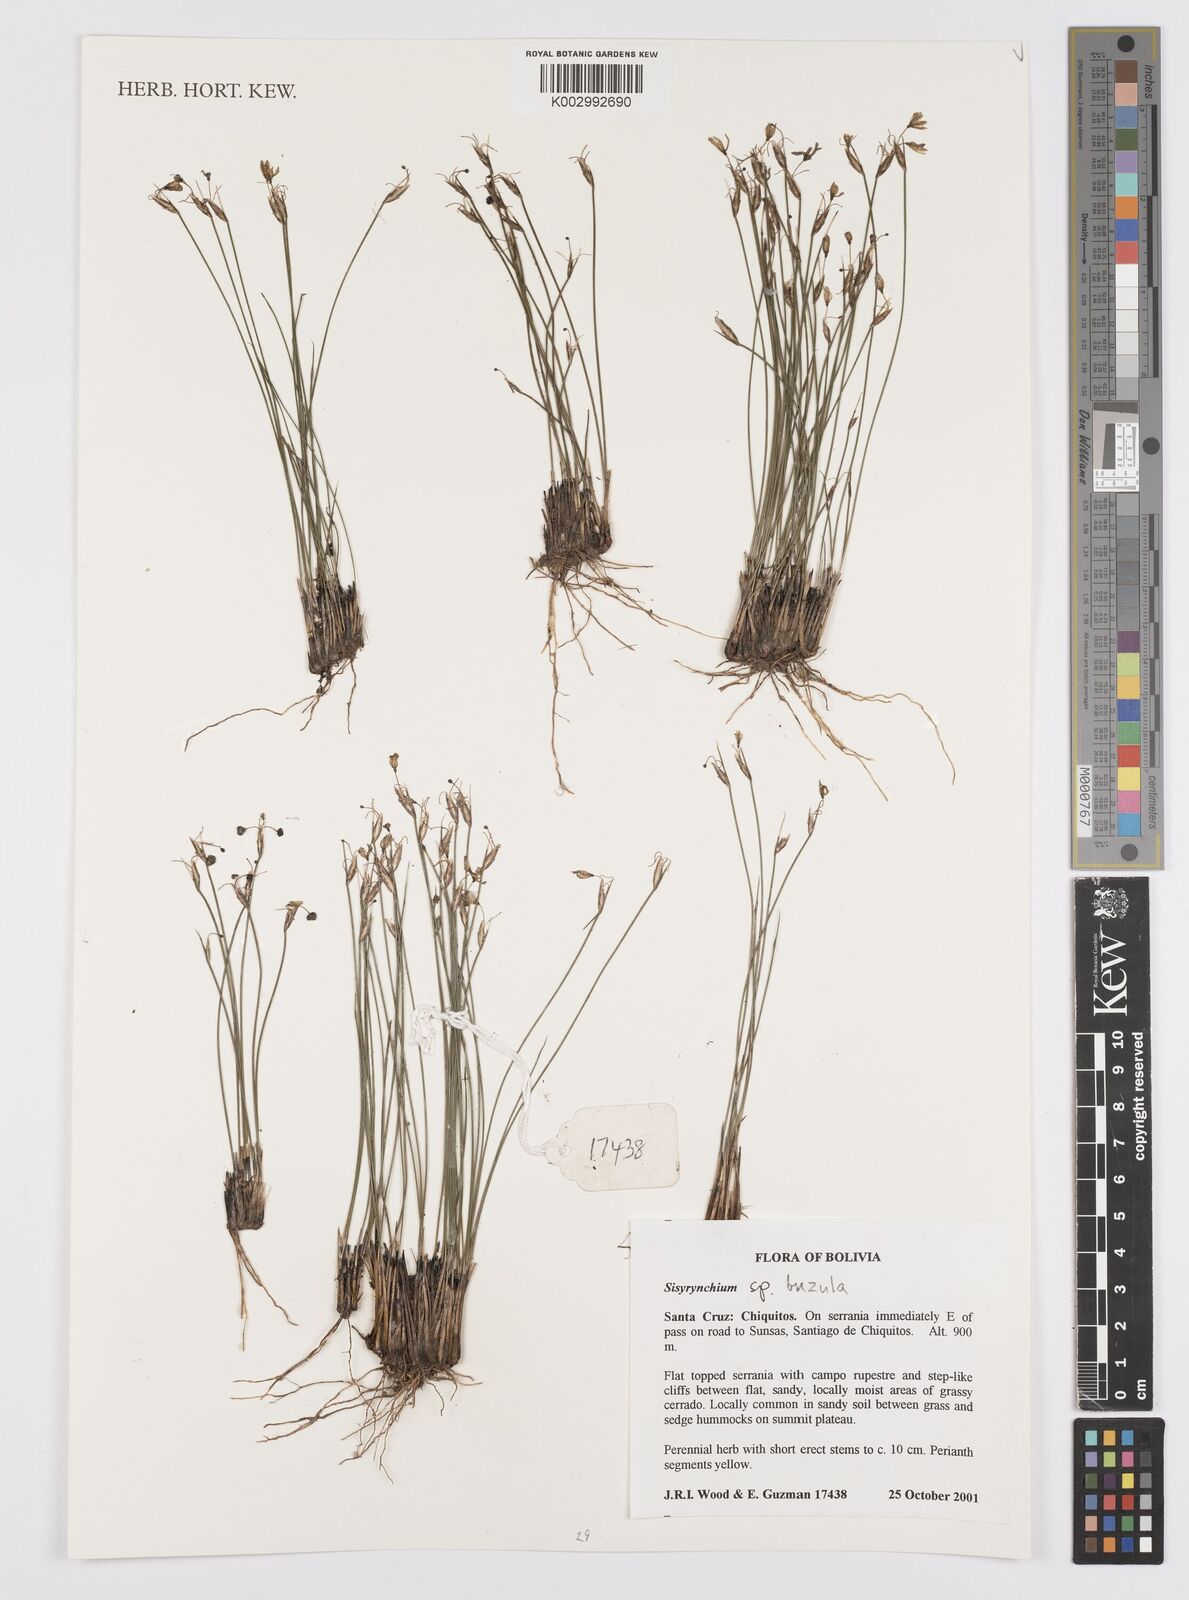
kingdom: Plantae
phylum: Tracheophyta
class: Liliopsida
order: Asparagales
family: Iridaceae
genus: Sisyrinchium
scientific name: Sisyrinchium
